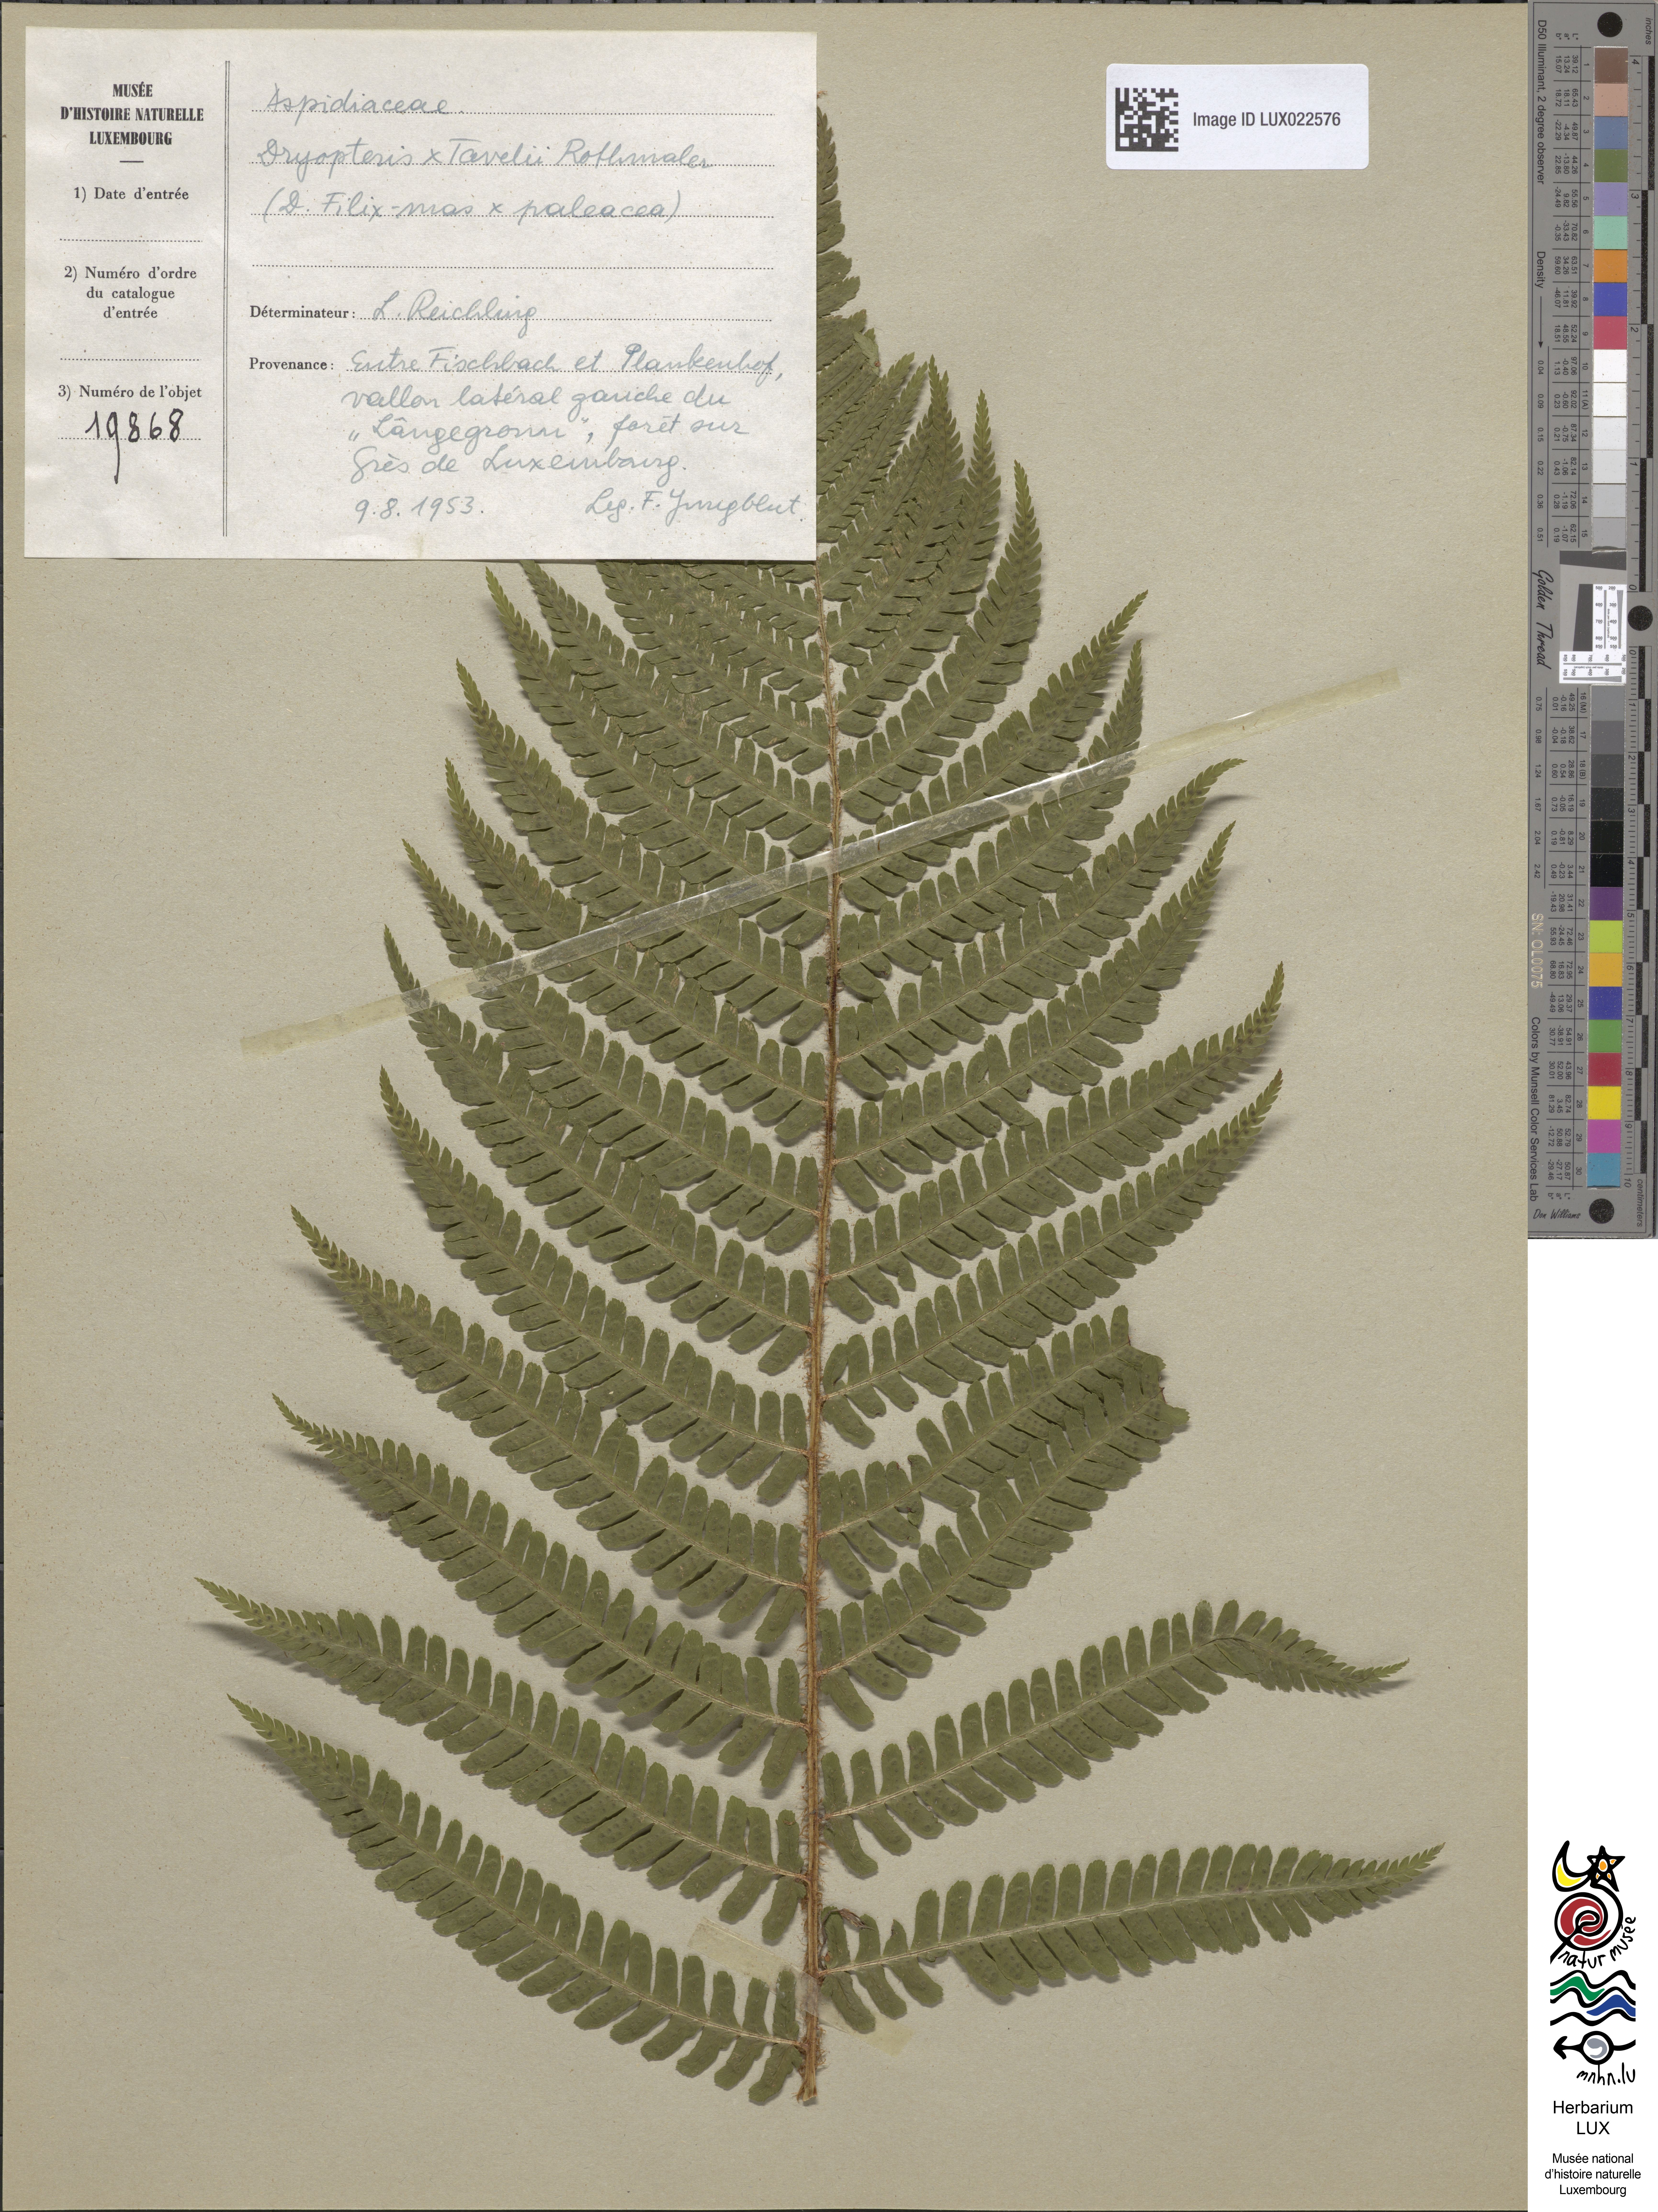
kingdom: Plantae
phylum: Tracheophyta
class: Polypodiopsida
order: Polypodiales
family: Dryopteridaceae
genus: Dryopteris
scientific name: Dryopteris borreri
